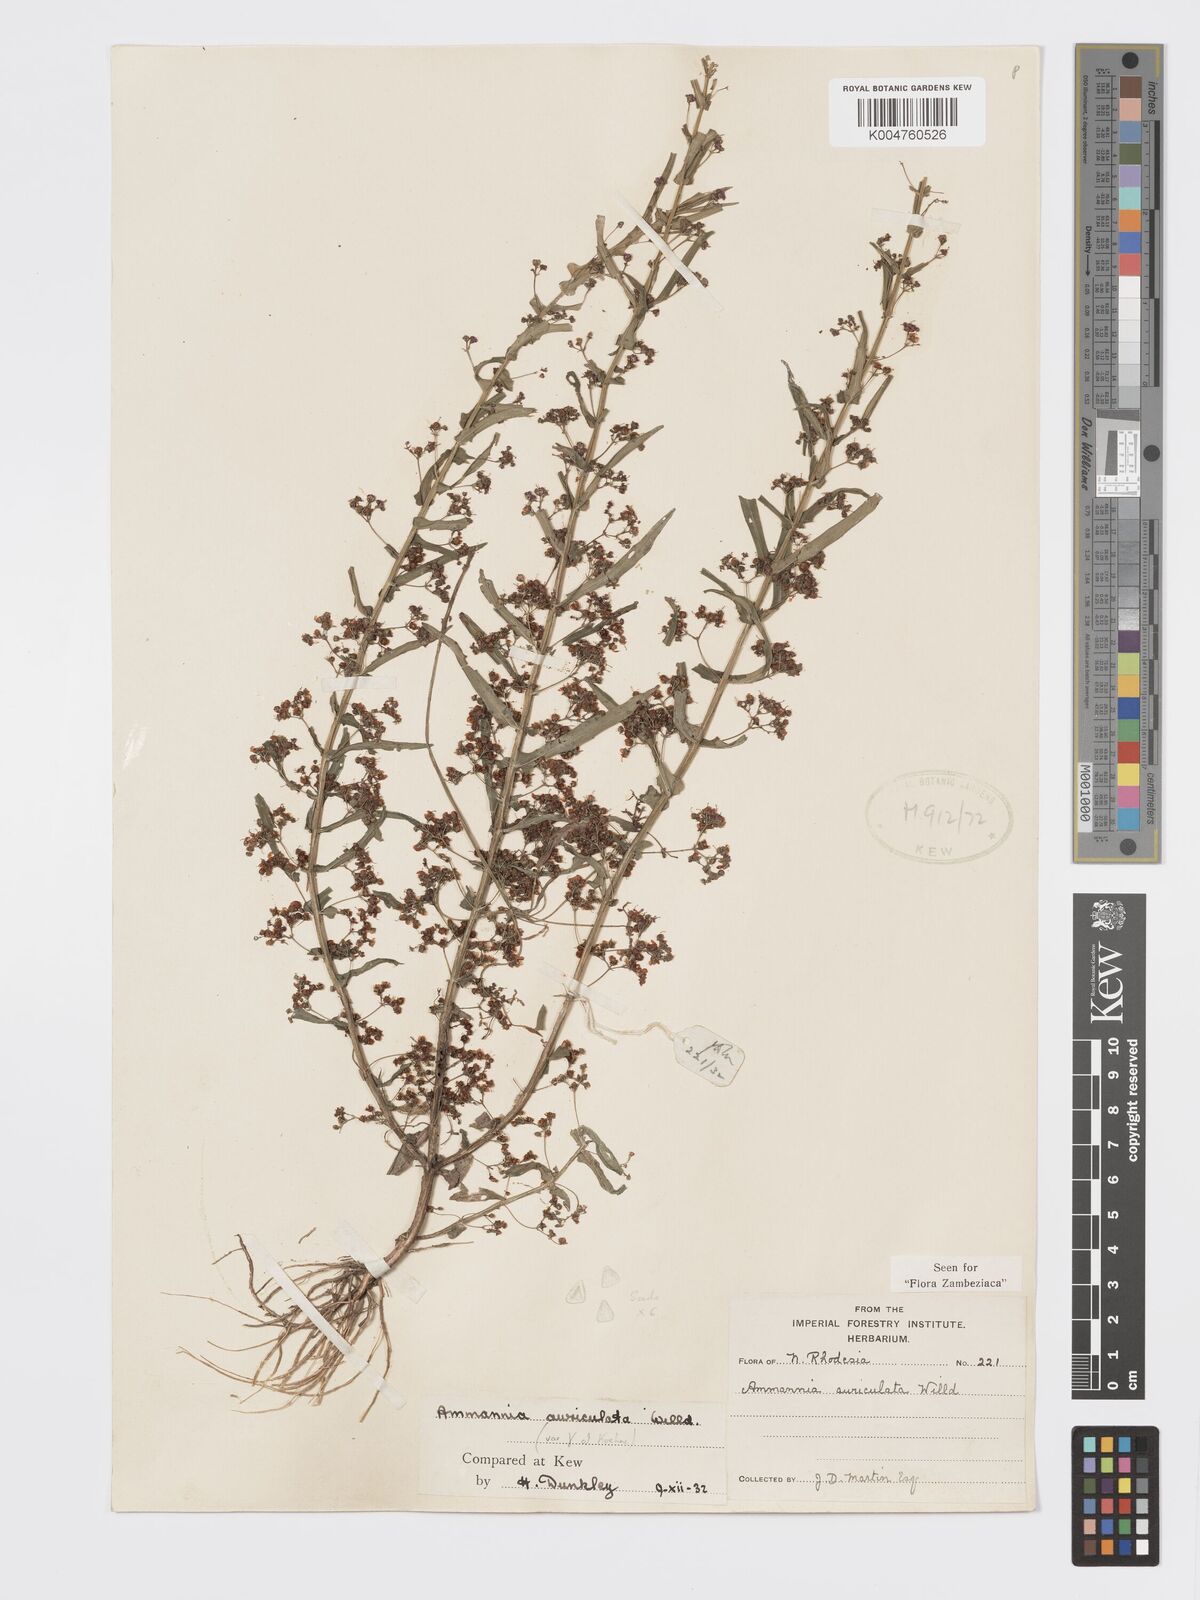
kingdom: Plantae
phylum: Tracheophyta
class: Magnoliopsida
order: Myrtales
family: Lythraceae
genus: Ammannia
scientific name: Ammannia auriculata
